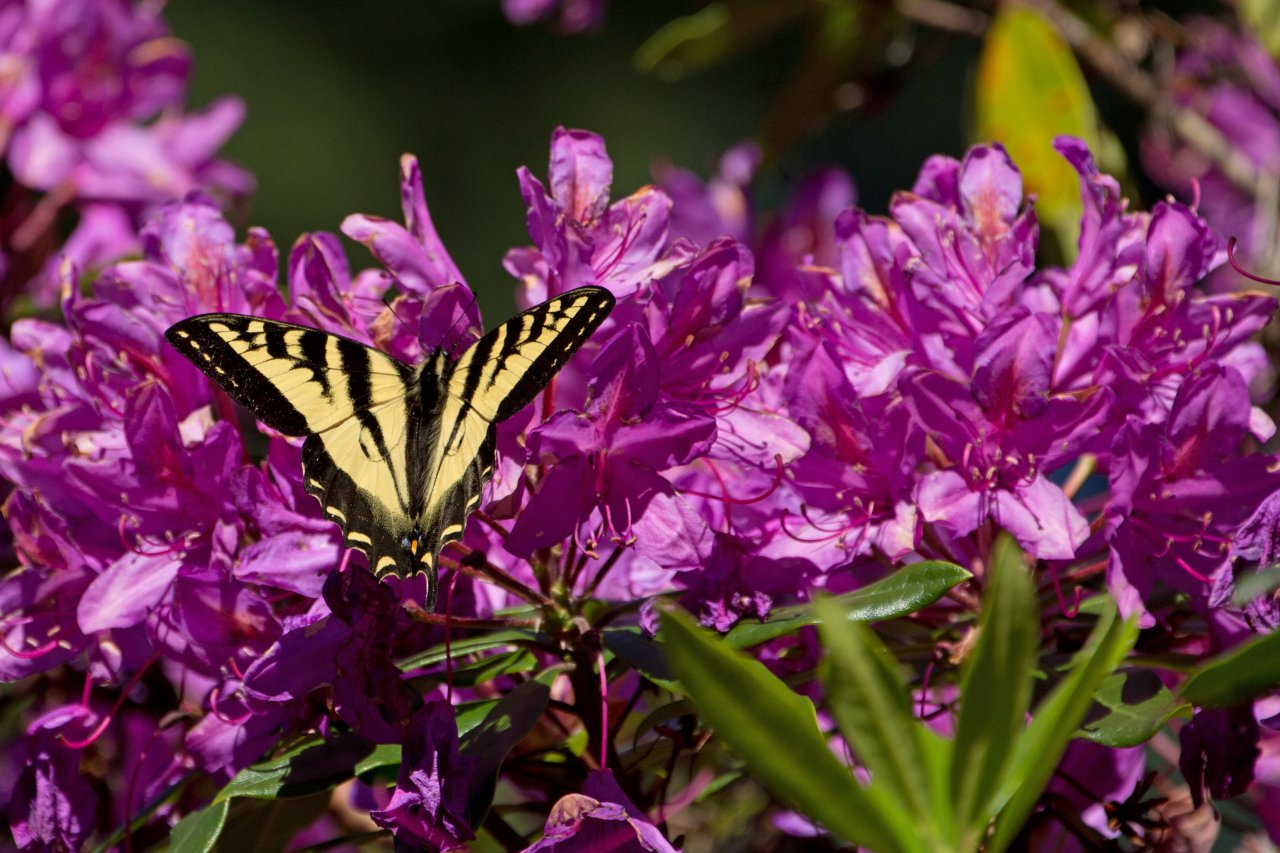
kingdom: Animalia
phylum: Arthropoda
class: Insecta
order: Lepidoptera
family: Papilionidae
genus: Pterourus
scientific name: Pterourus rutulus
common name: Western Tiger Swallowtail
